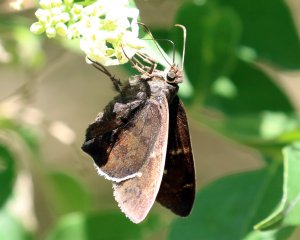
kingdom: Animalia
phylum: Arthropoda
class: Insecta
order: Lepidoptera
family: Hesperiidae
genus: Achalarus
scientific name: Achalarus toxeus
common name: Coyote Cloudywing
